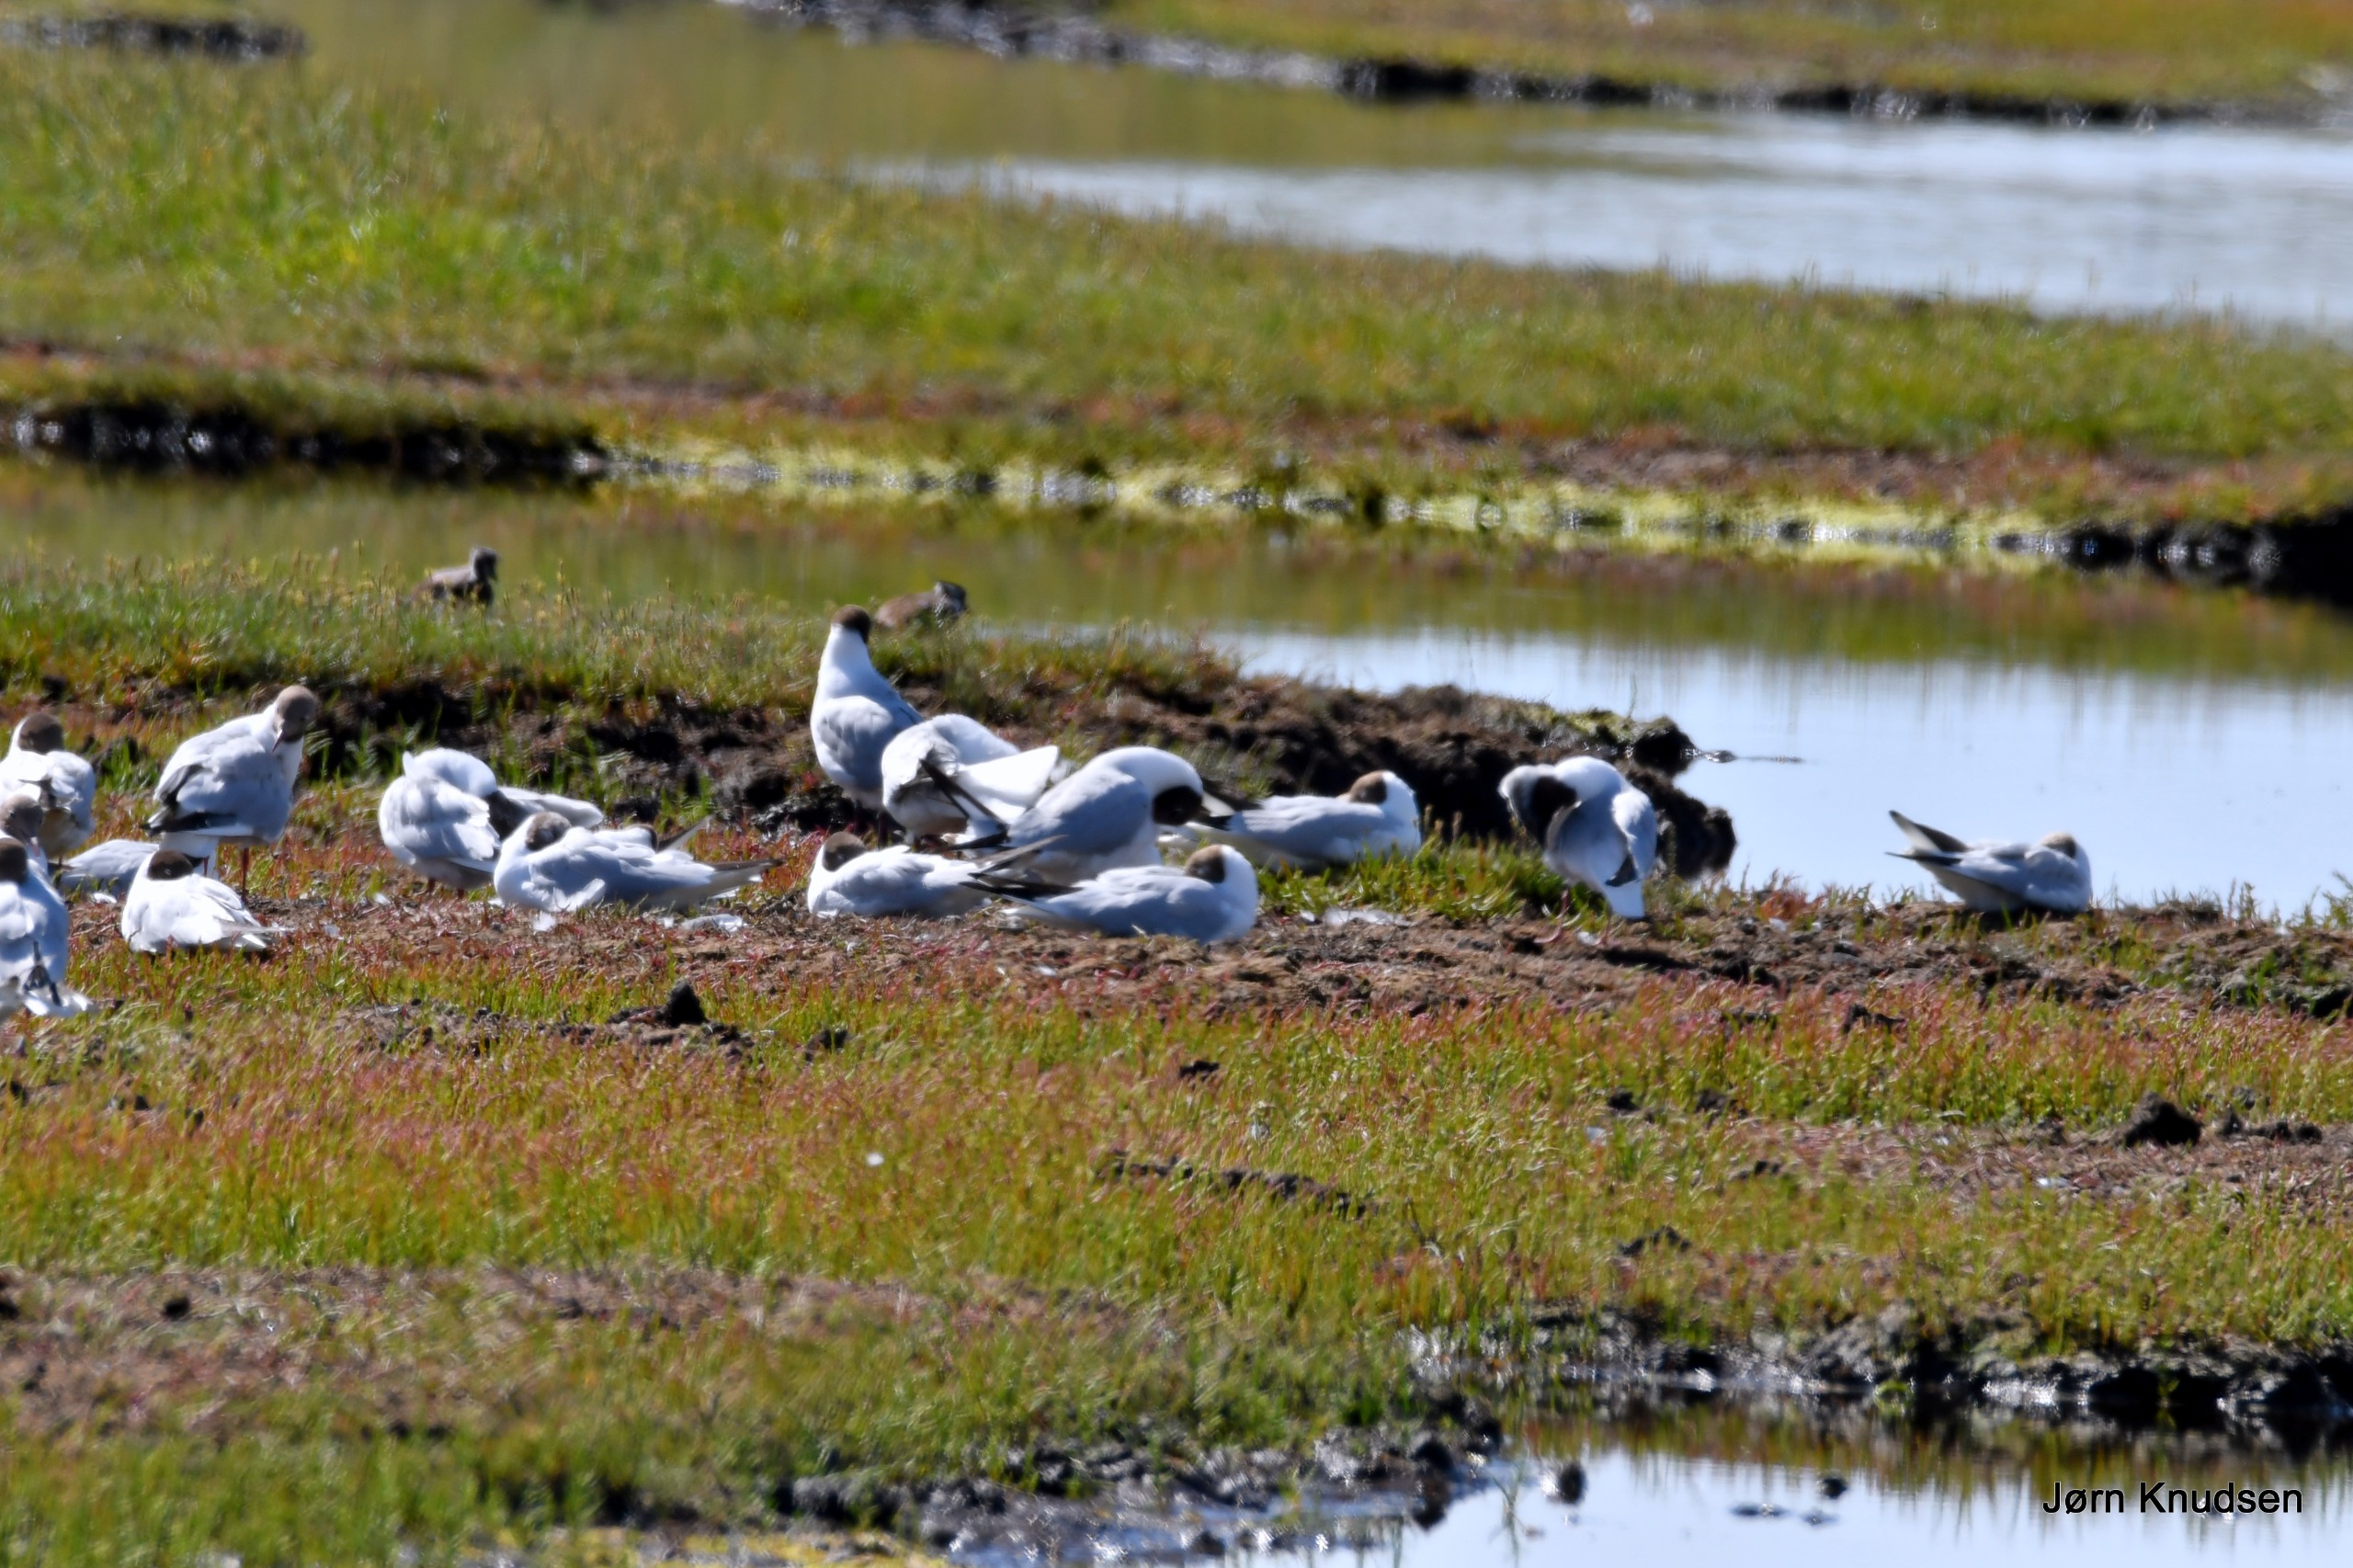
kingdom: Animalia
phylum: Chordata
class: Aves
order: Charadriiformes
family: Laridae
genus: Chroicocephalus
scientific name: Chroicocephalus ridibundus
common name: Hættemåge
